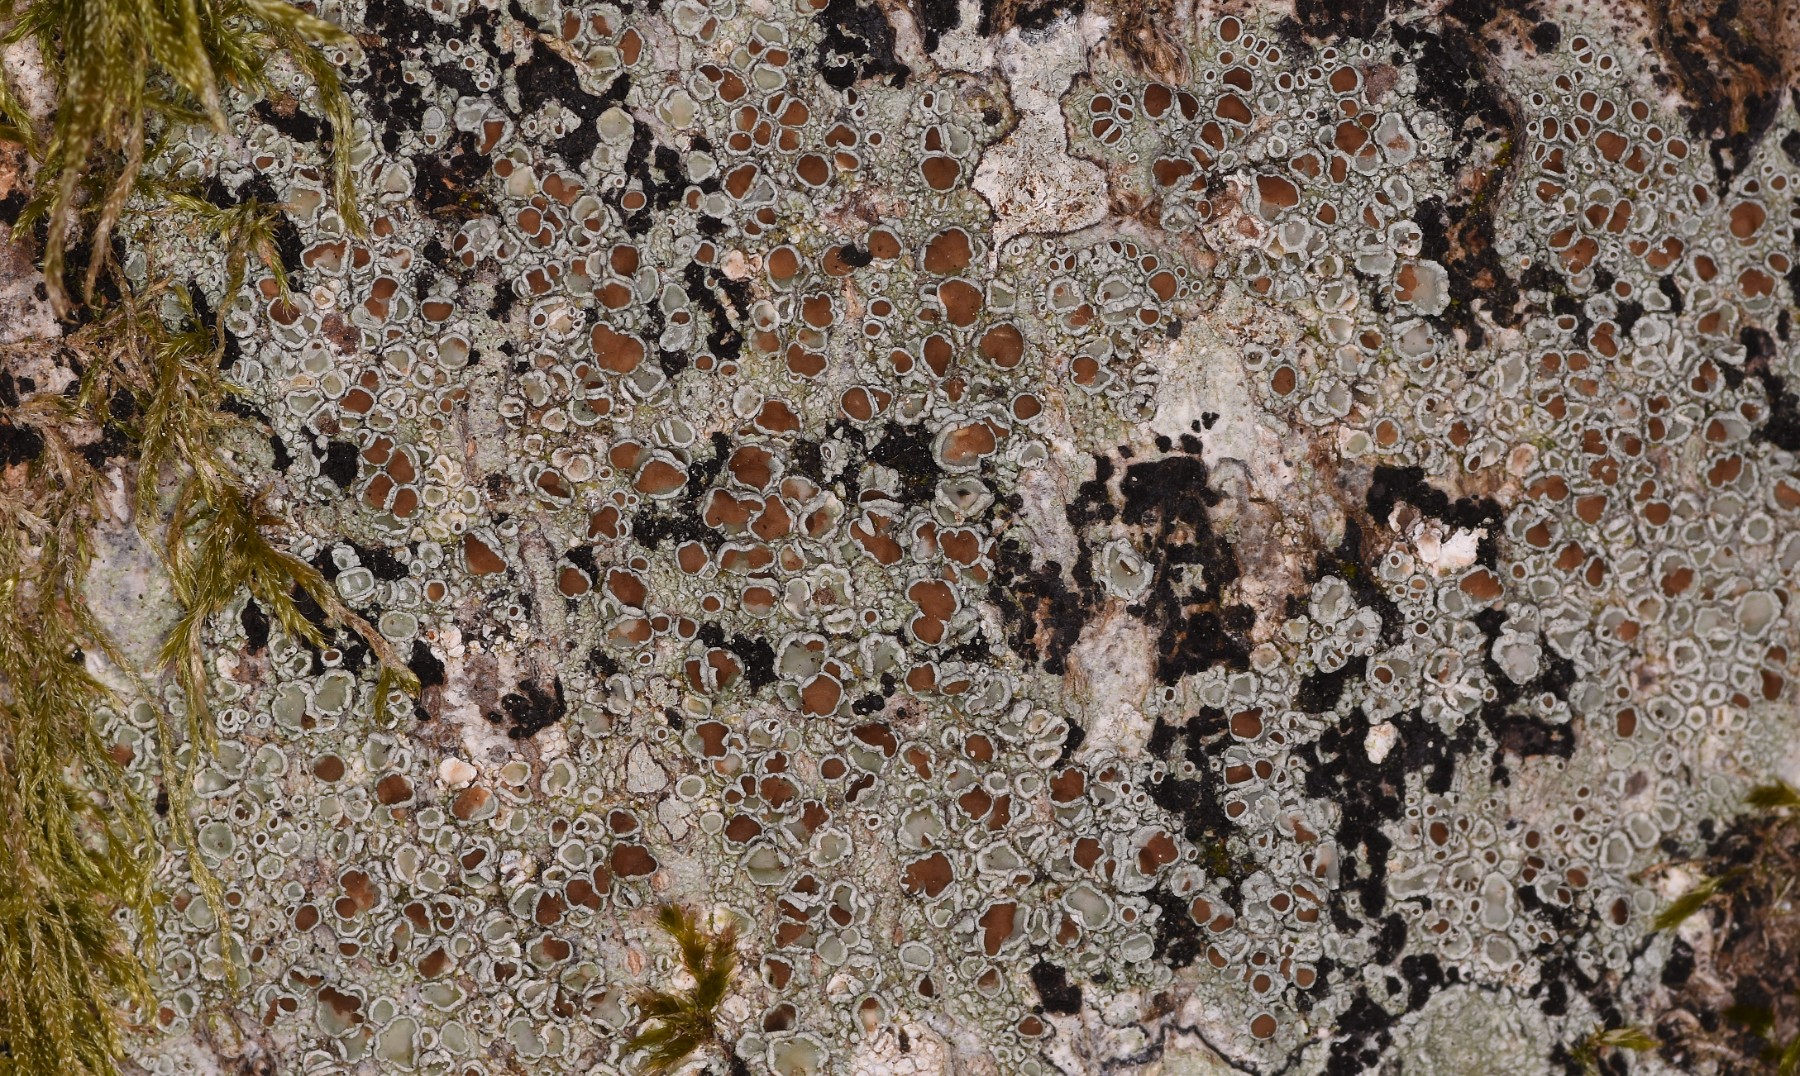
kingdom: Fungi
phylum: Ascomycota
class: Lecanoromycetes
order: Lecanorales
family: Lecanoraceae
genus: Lecanora
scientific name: Lecanora argentata
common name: sølv-kantskivelav
